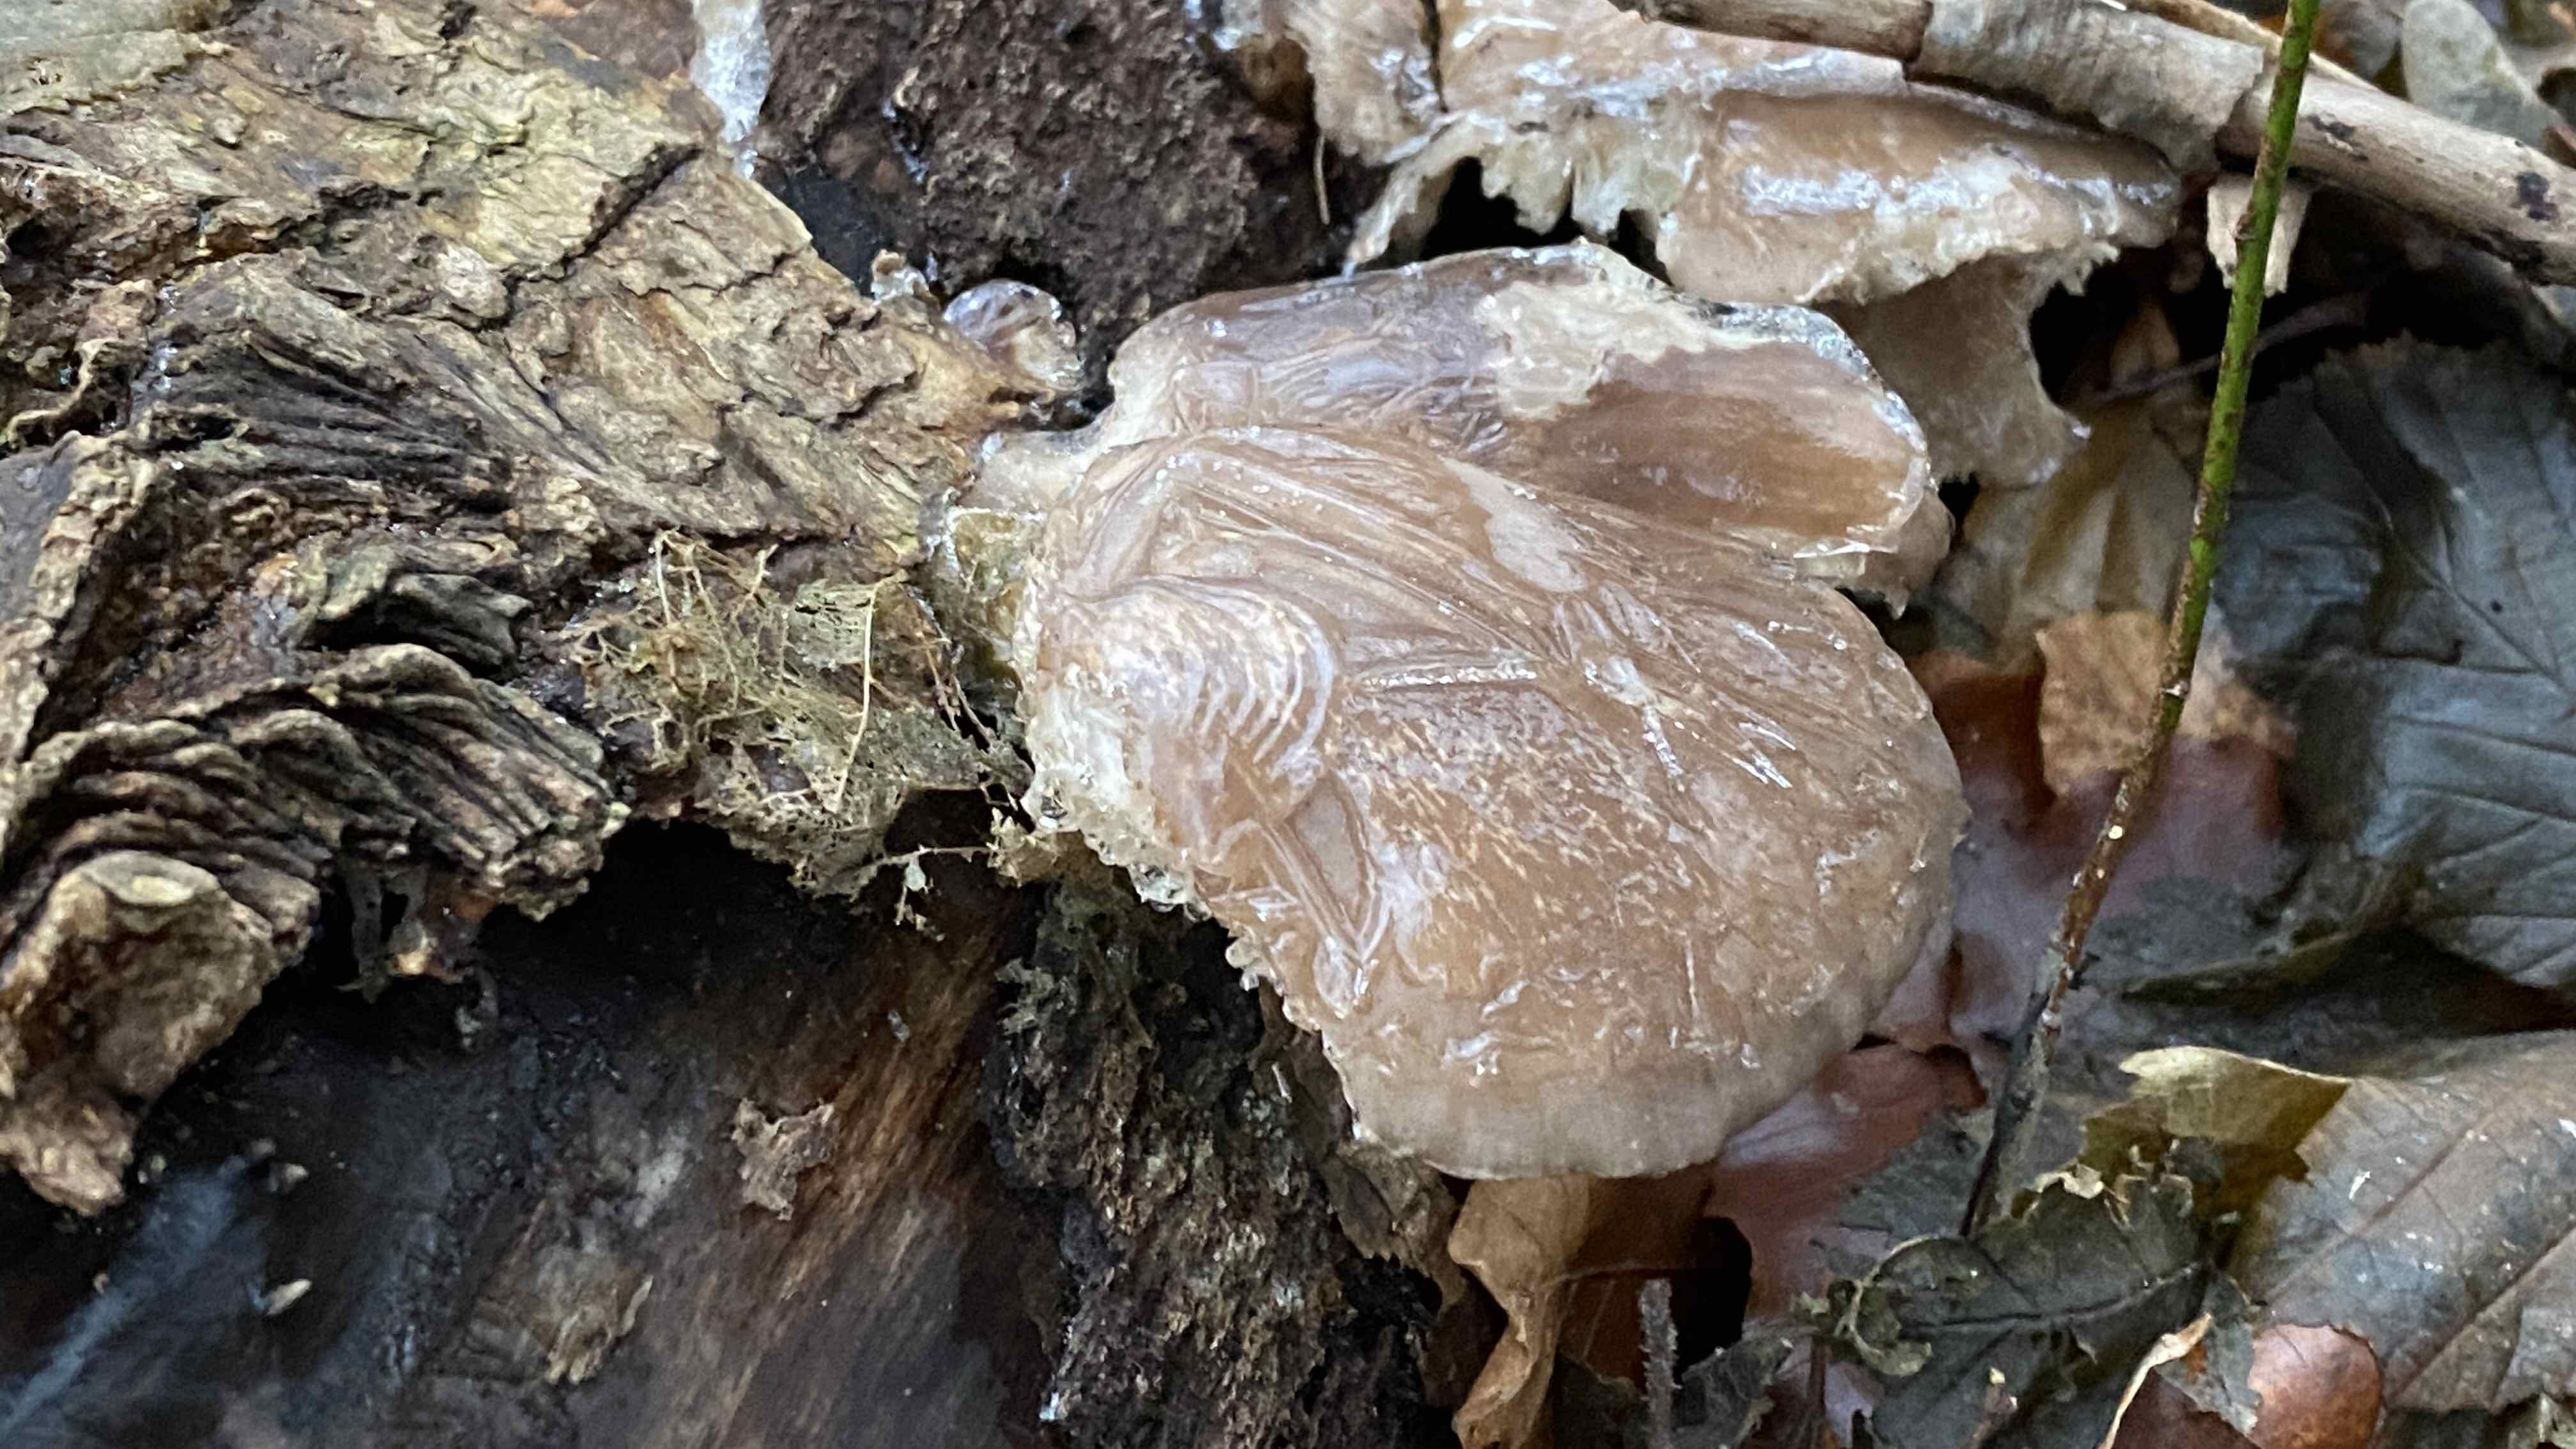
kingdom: Fungi
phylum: Basidiomycota
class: Agaricomycetes
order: Agaricales
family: Pleurotaceae
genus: Pleurotus
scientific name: Pleurotus ostreatus
